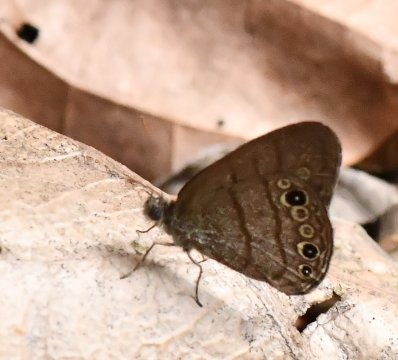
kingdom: Animalia
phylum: Arthropoda
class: Insecta
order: Lepidoptera
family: Nymphalidae
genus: Hermeuptychia
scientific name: Hermeuptychia canthe
